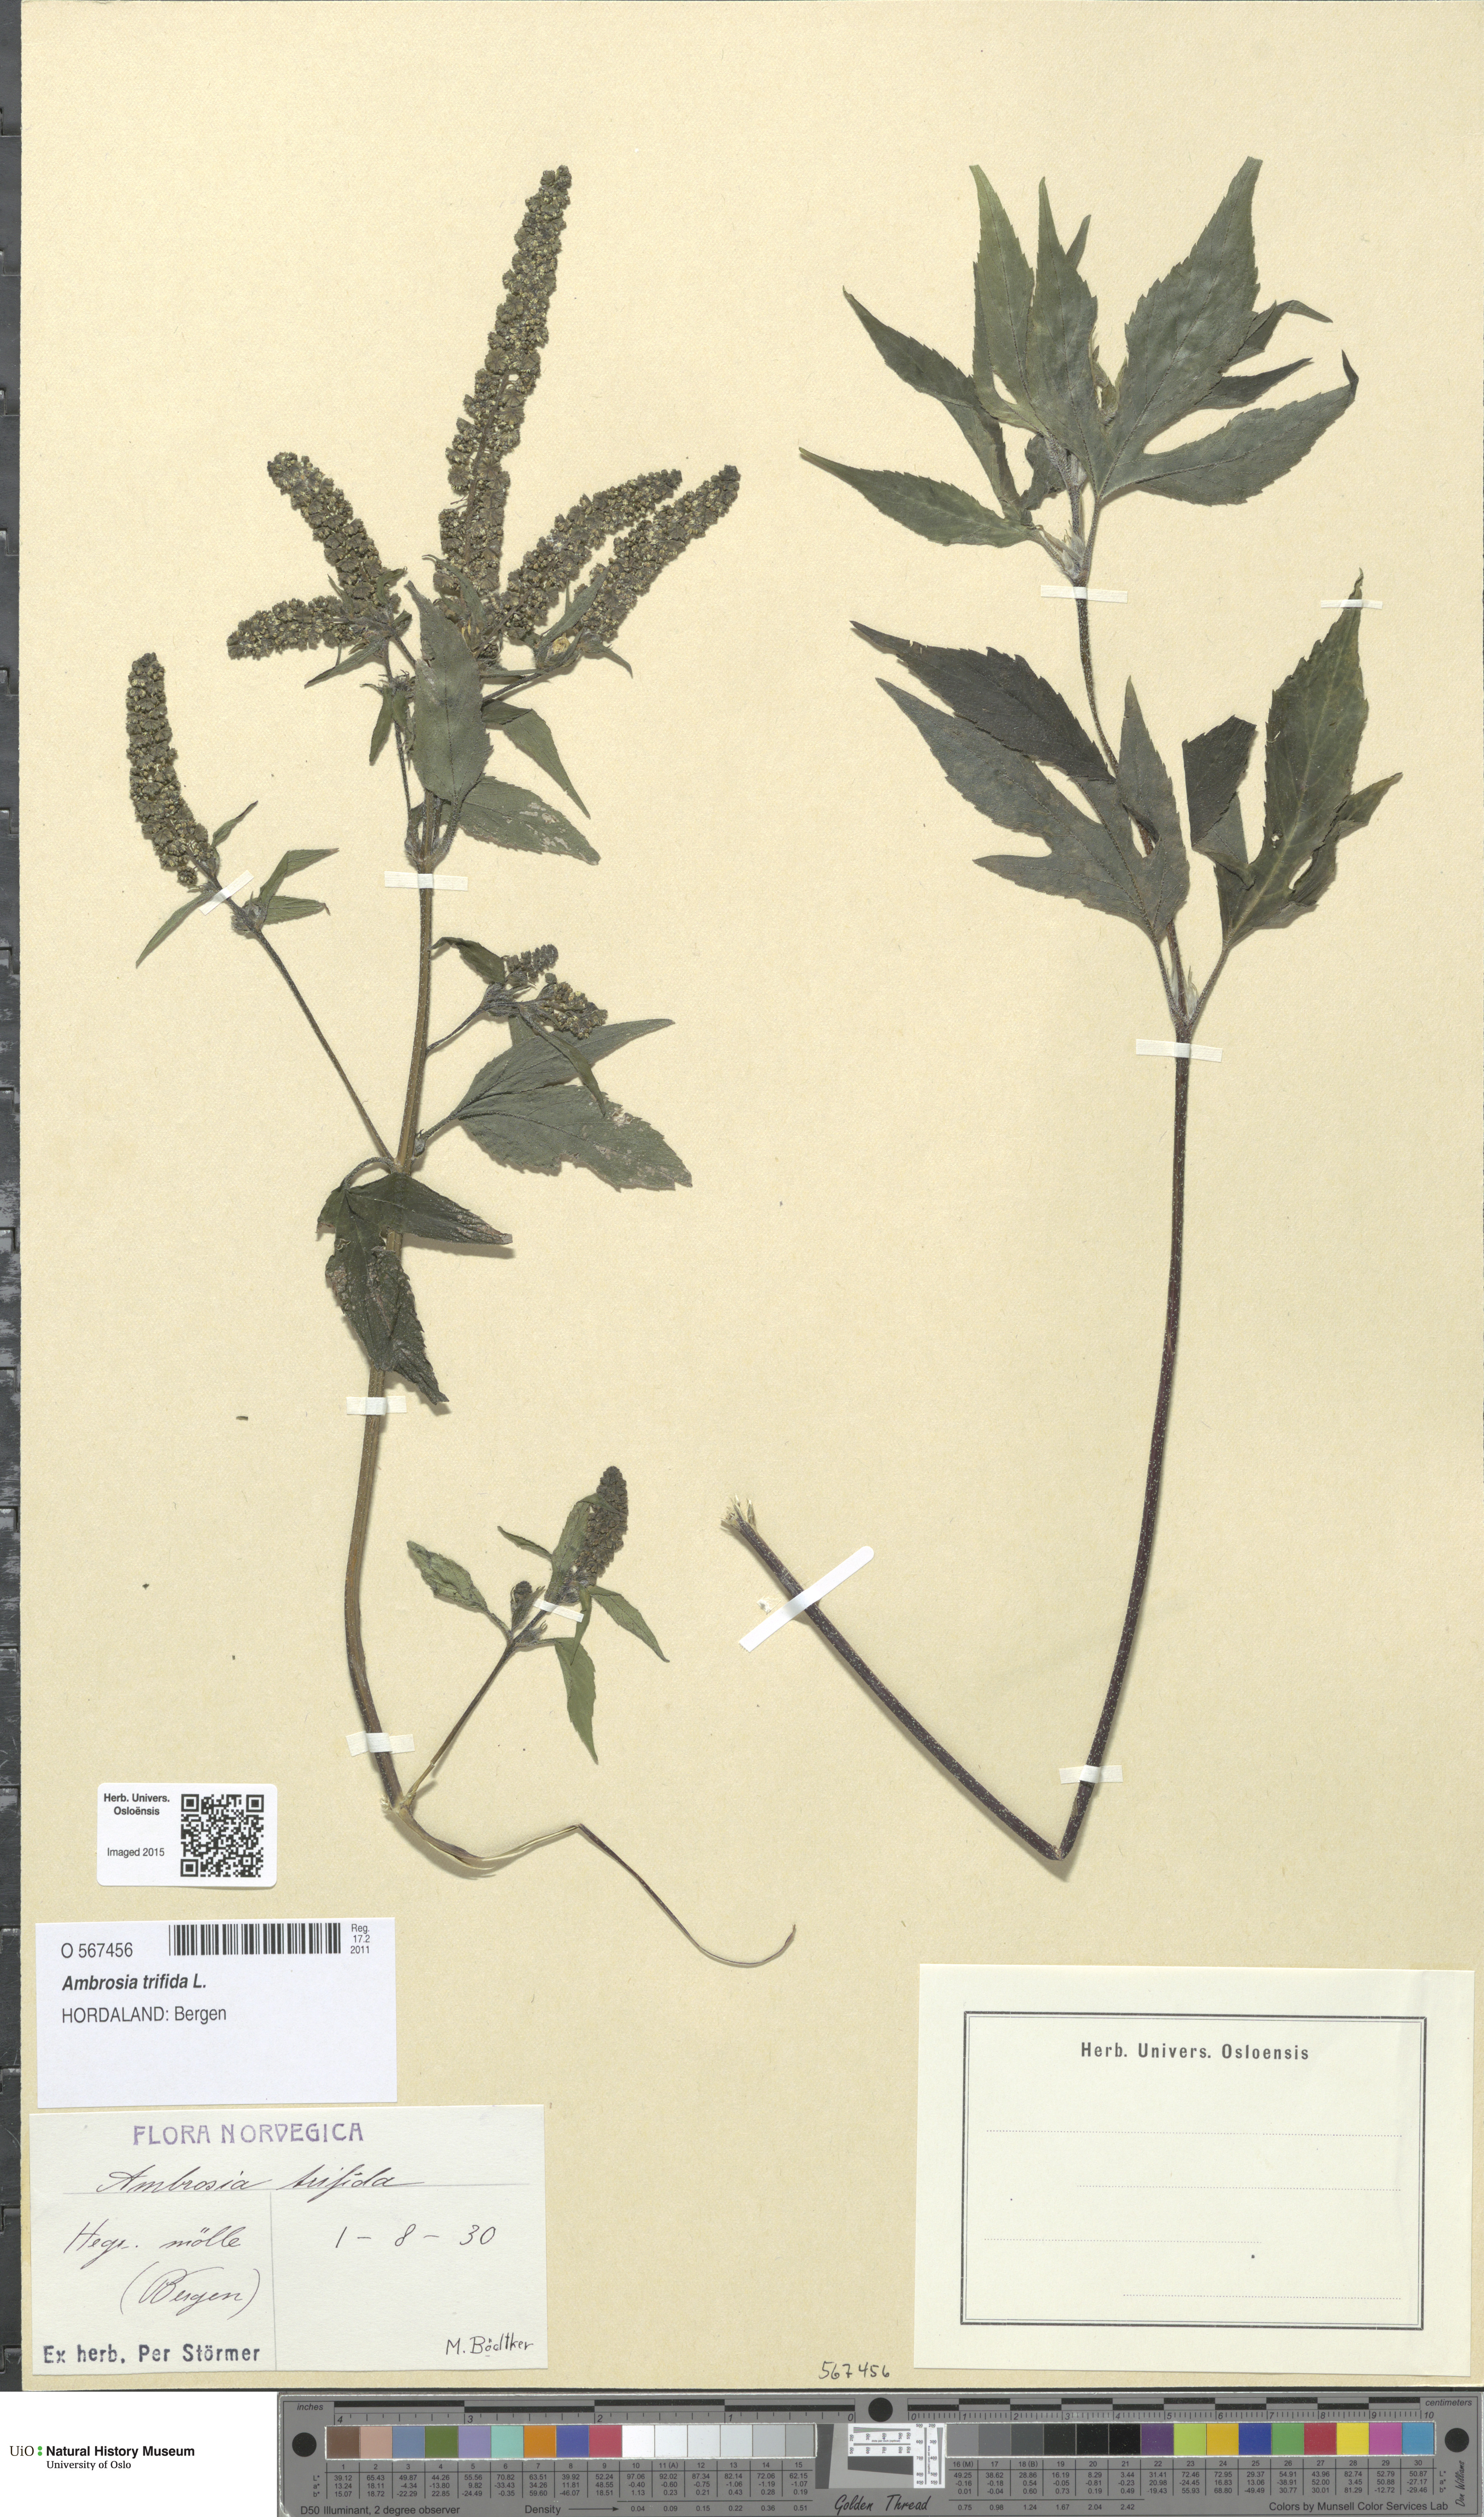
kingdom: Plantae
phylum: Tracheophyta
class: Magnoliopsida
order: Asterales
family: Asteraceae
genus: Ambrosia
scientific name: Ambrosia trifida
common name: Giant ragweed
